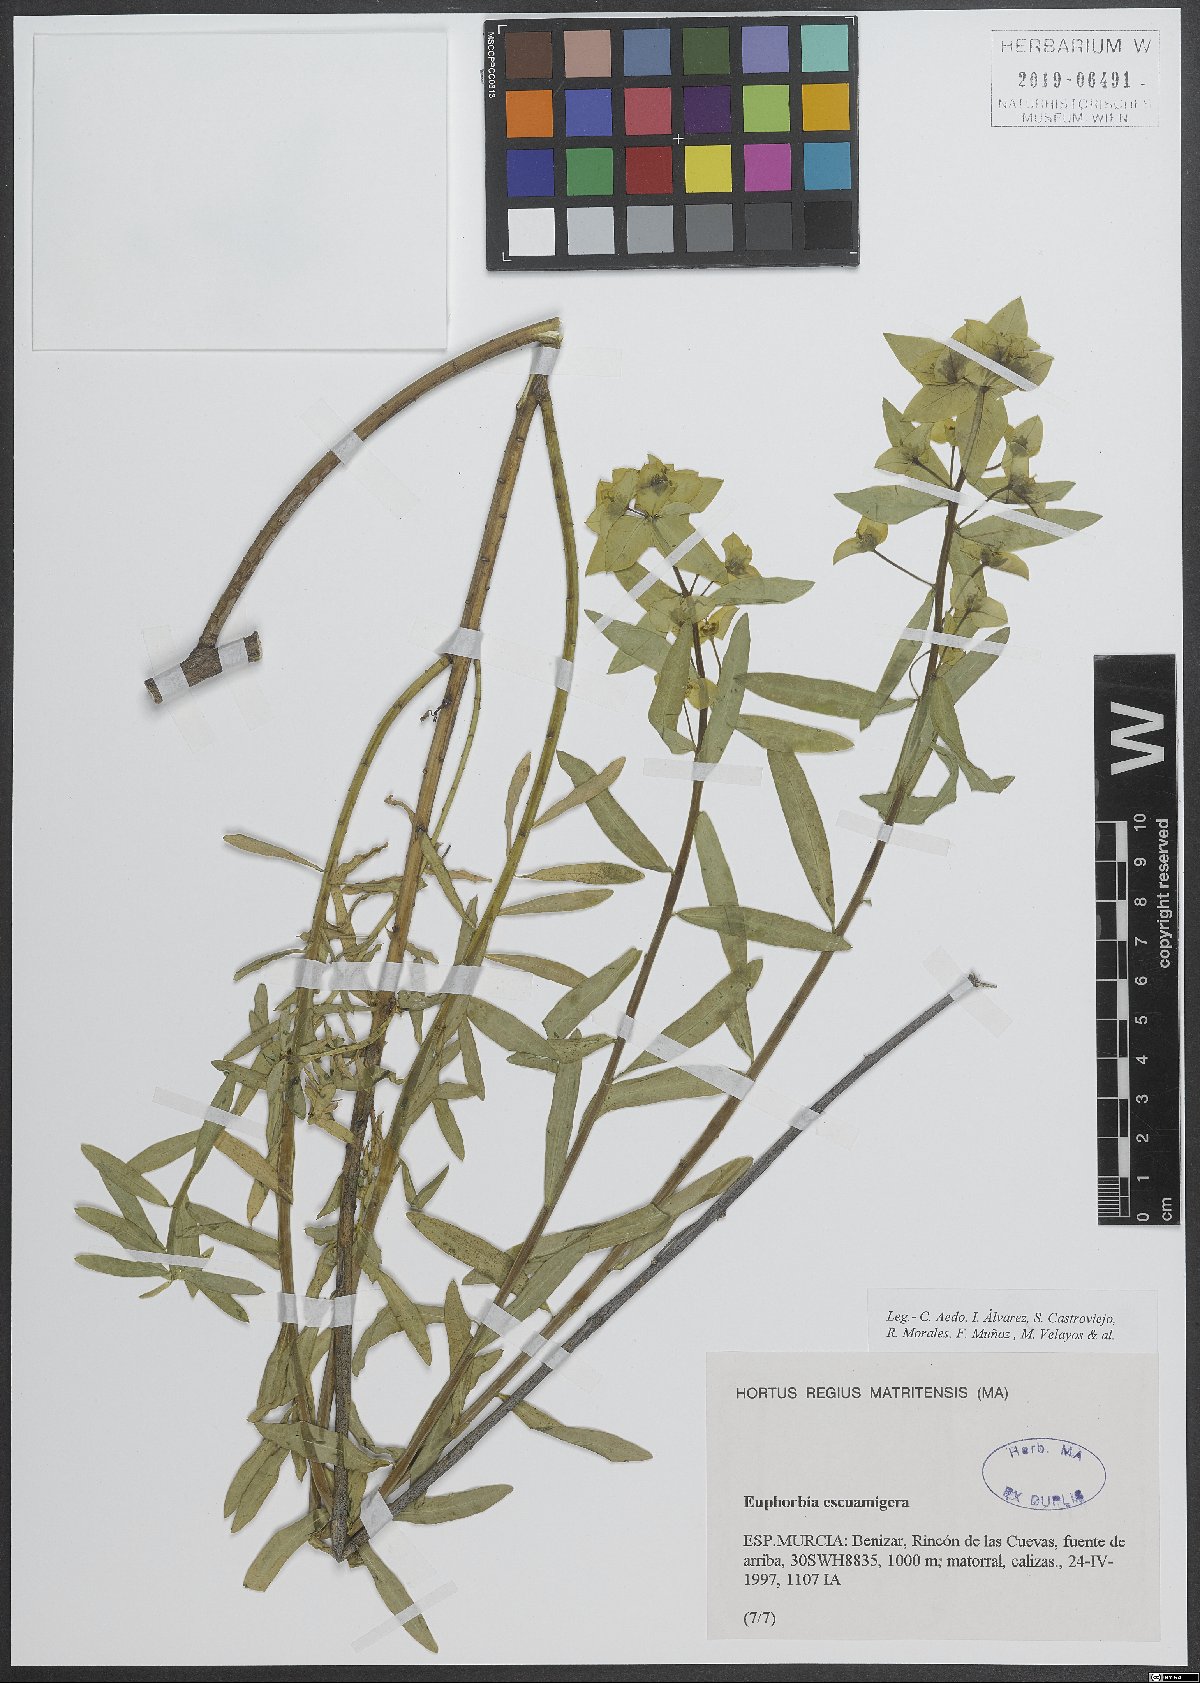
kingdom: Plantae
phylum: Tracheophyta
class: Magnoliopsida
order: Malpighiales
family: Euphorbiaceae
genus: Euphorbia
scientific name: Euphorbia squamigera
